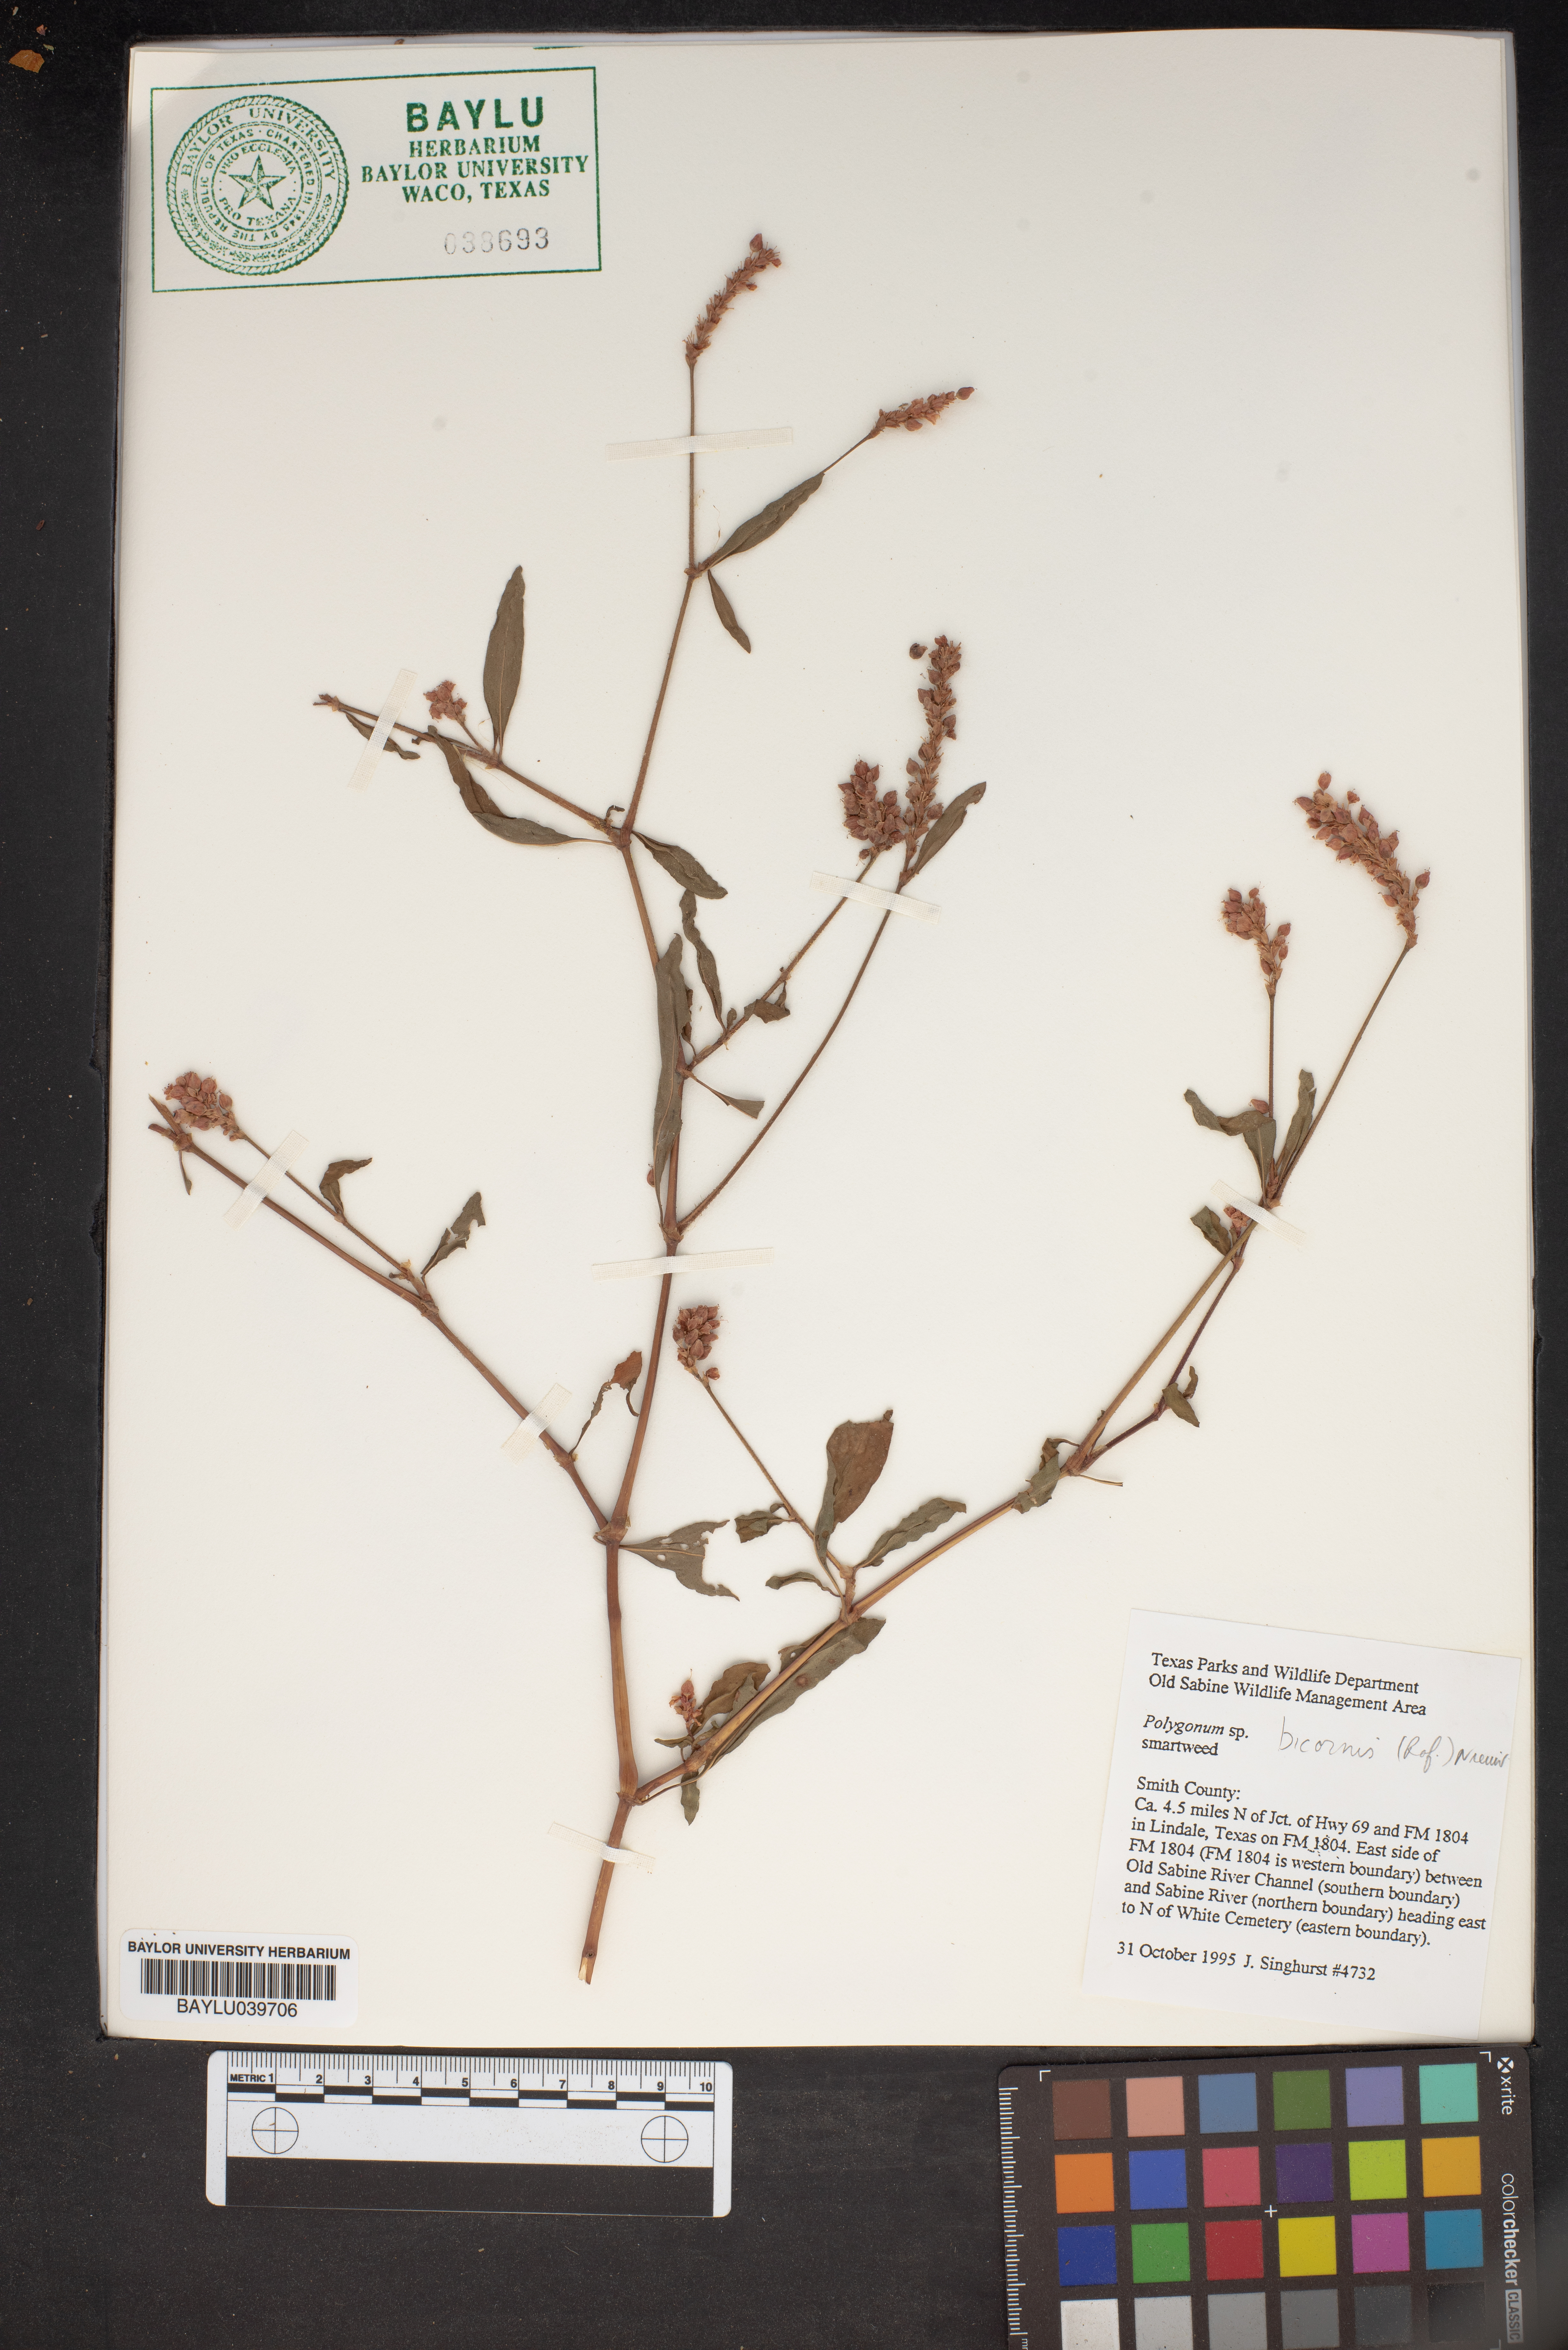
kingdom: Plantae
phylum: Tracheophyta
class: Magnoliopsida
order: Caryophyllales
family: Polygonaceae
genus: Persicaria
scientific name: Persicaria bicornis
